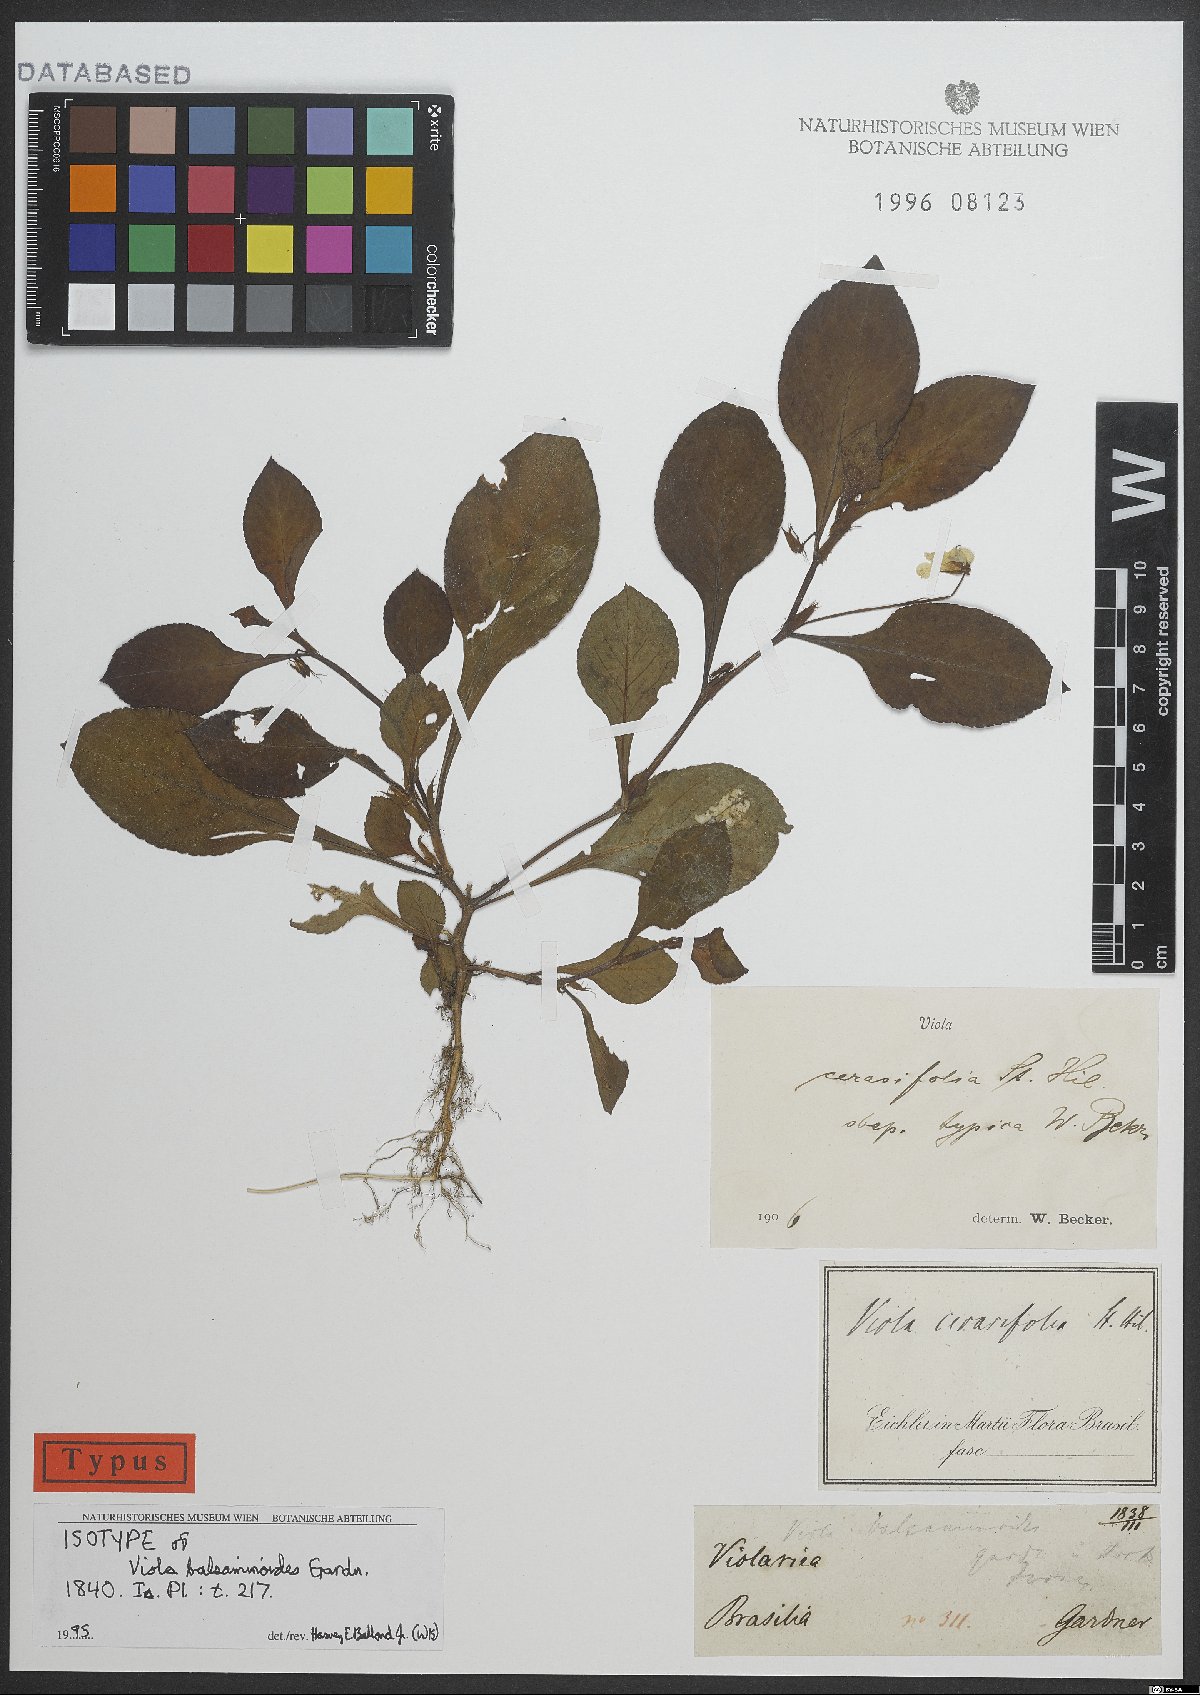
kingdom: Plantae
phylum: Tracheophyta
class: Magnoliopsida
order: Malpighiales
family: Violaceae
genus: Viola
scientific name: Viola cerasifolia
